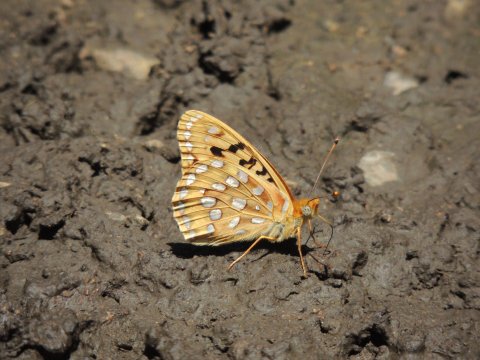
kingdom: Animalia
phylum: Arthropoda
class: Insecta
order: Lepidoptera
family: Nymphalidae
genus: Speyeria
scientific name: Speyeria coronis
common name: Coronis Fritillary
